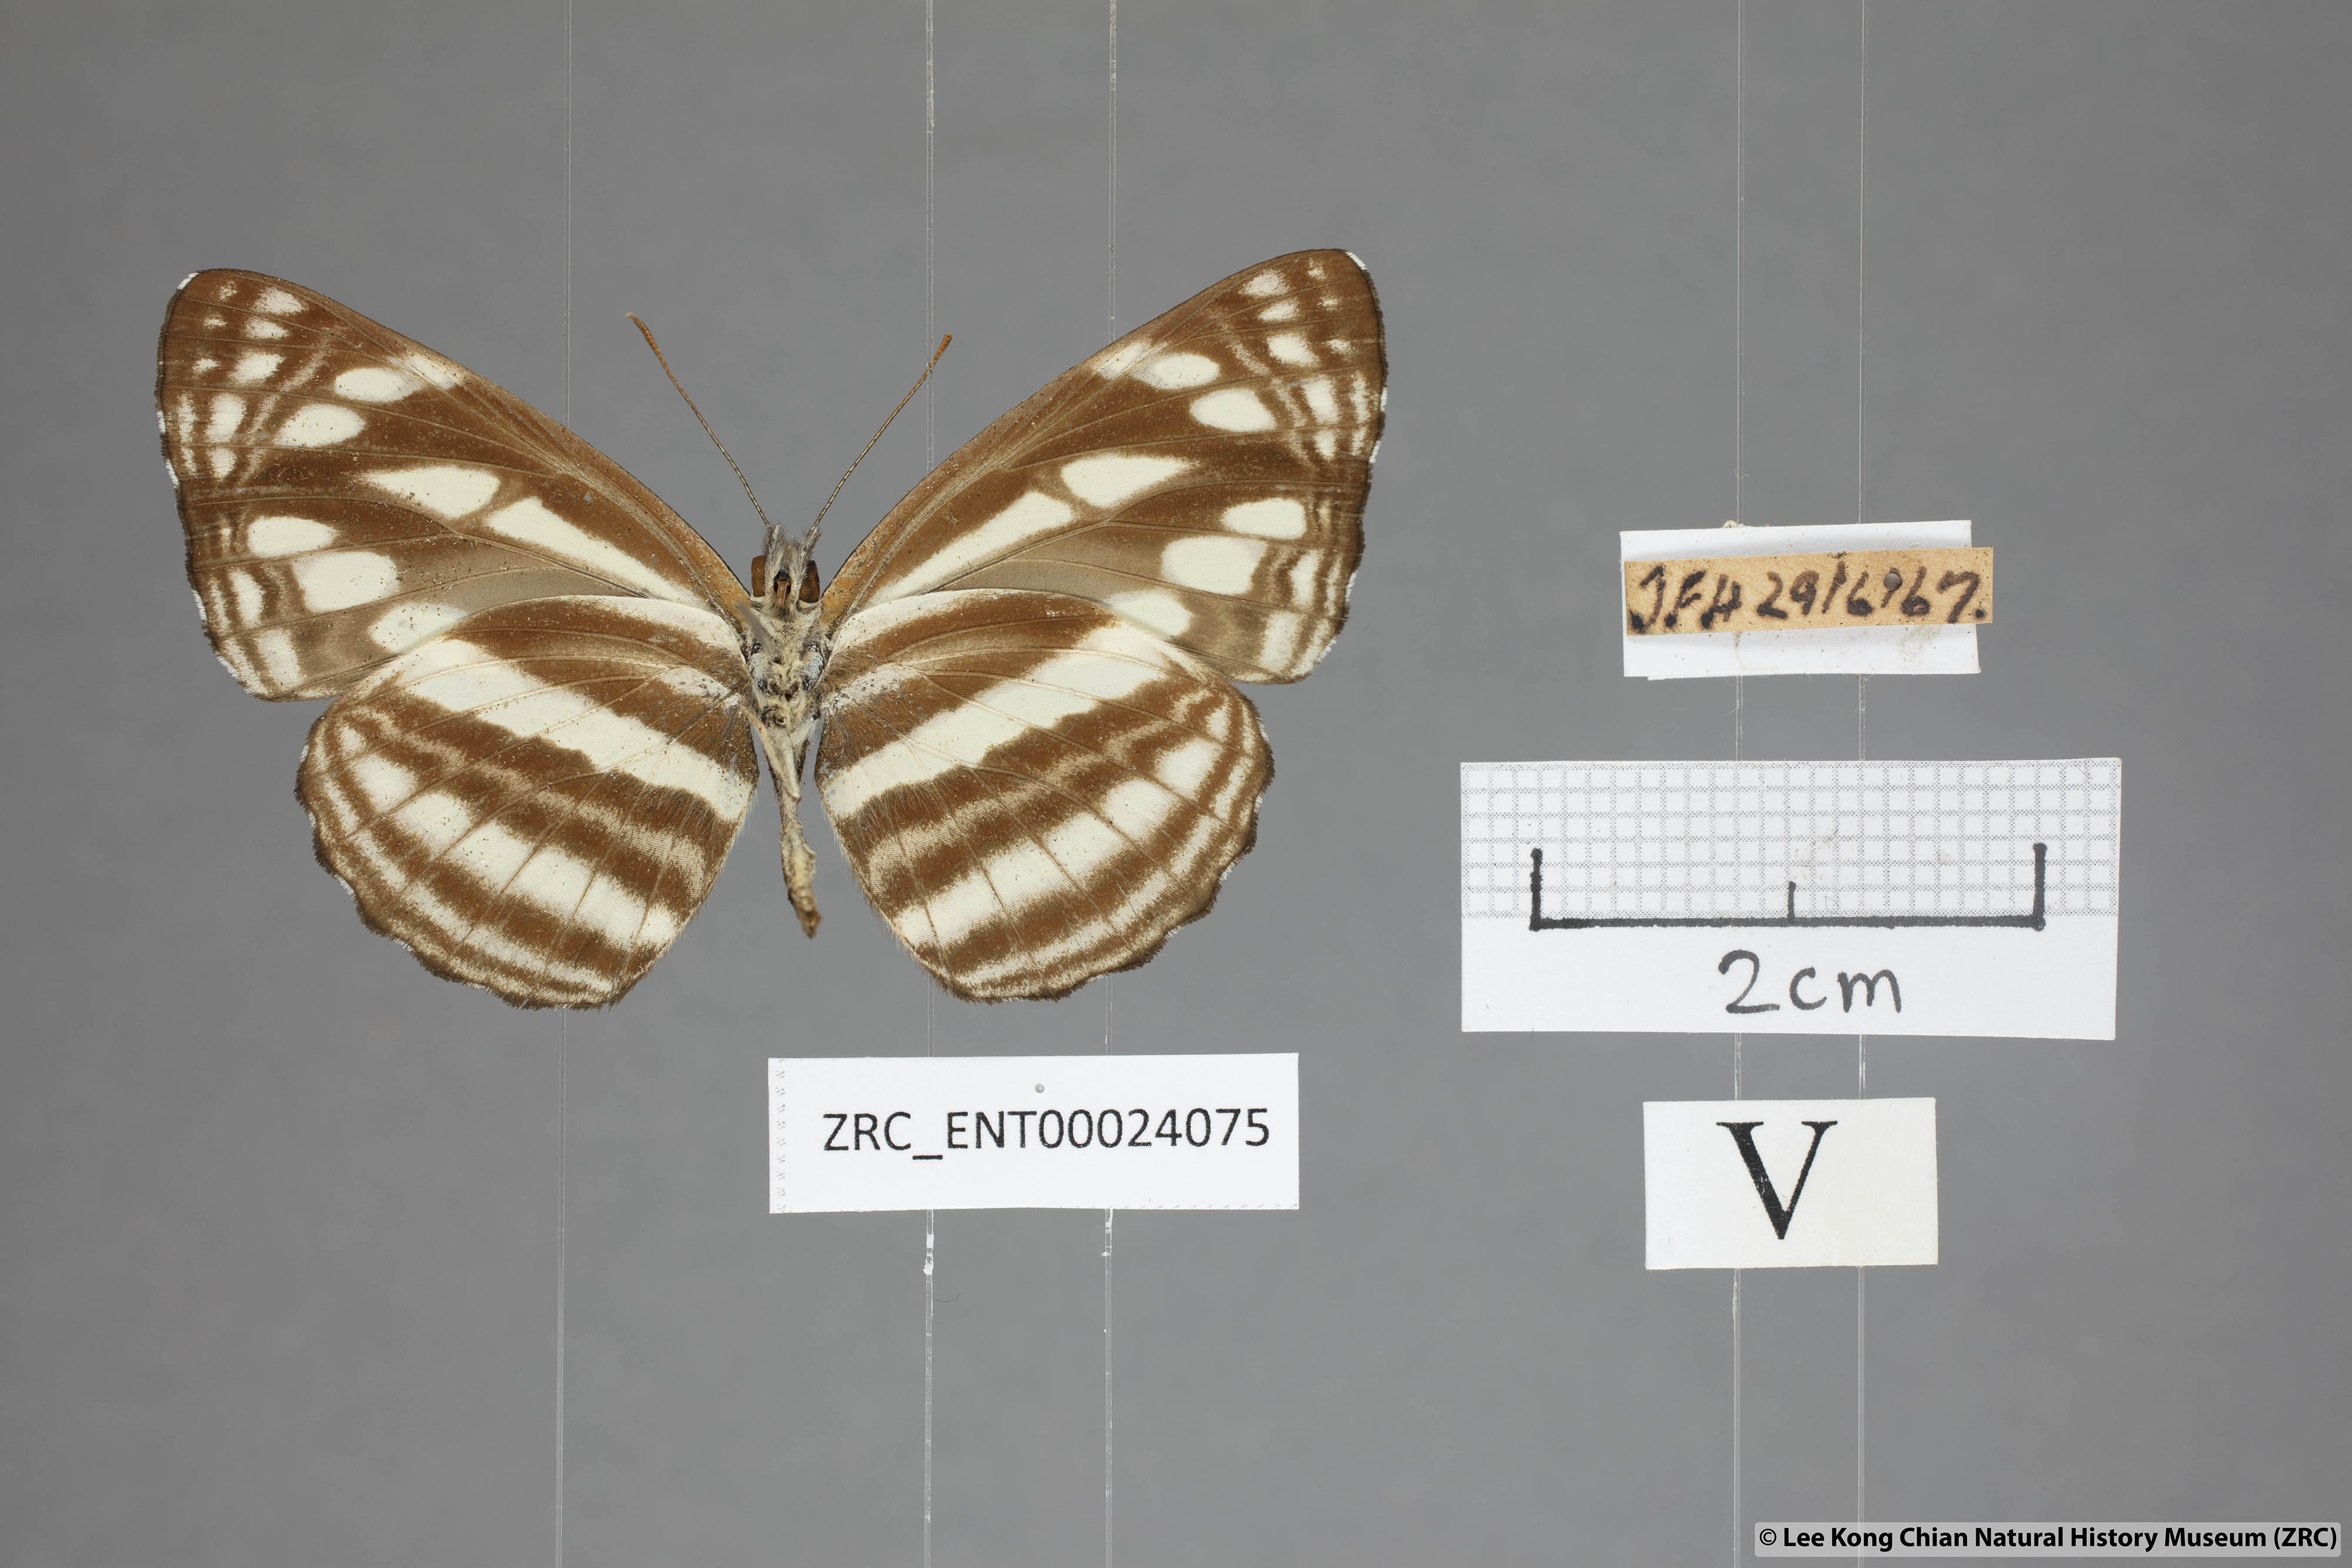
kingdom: Animalia
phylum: Arthropoda
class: Insecta
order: Lepidoptera
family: Nymphalidae
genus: Neptis
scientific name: Neptis soma
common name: Cream-spotted sailor
